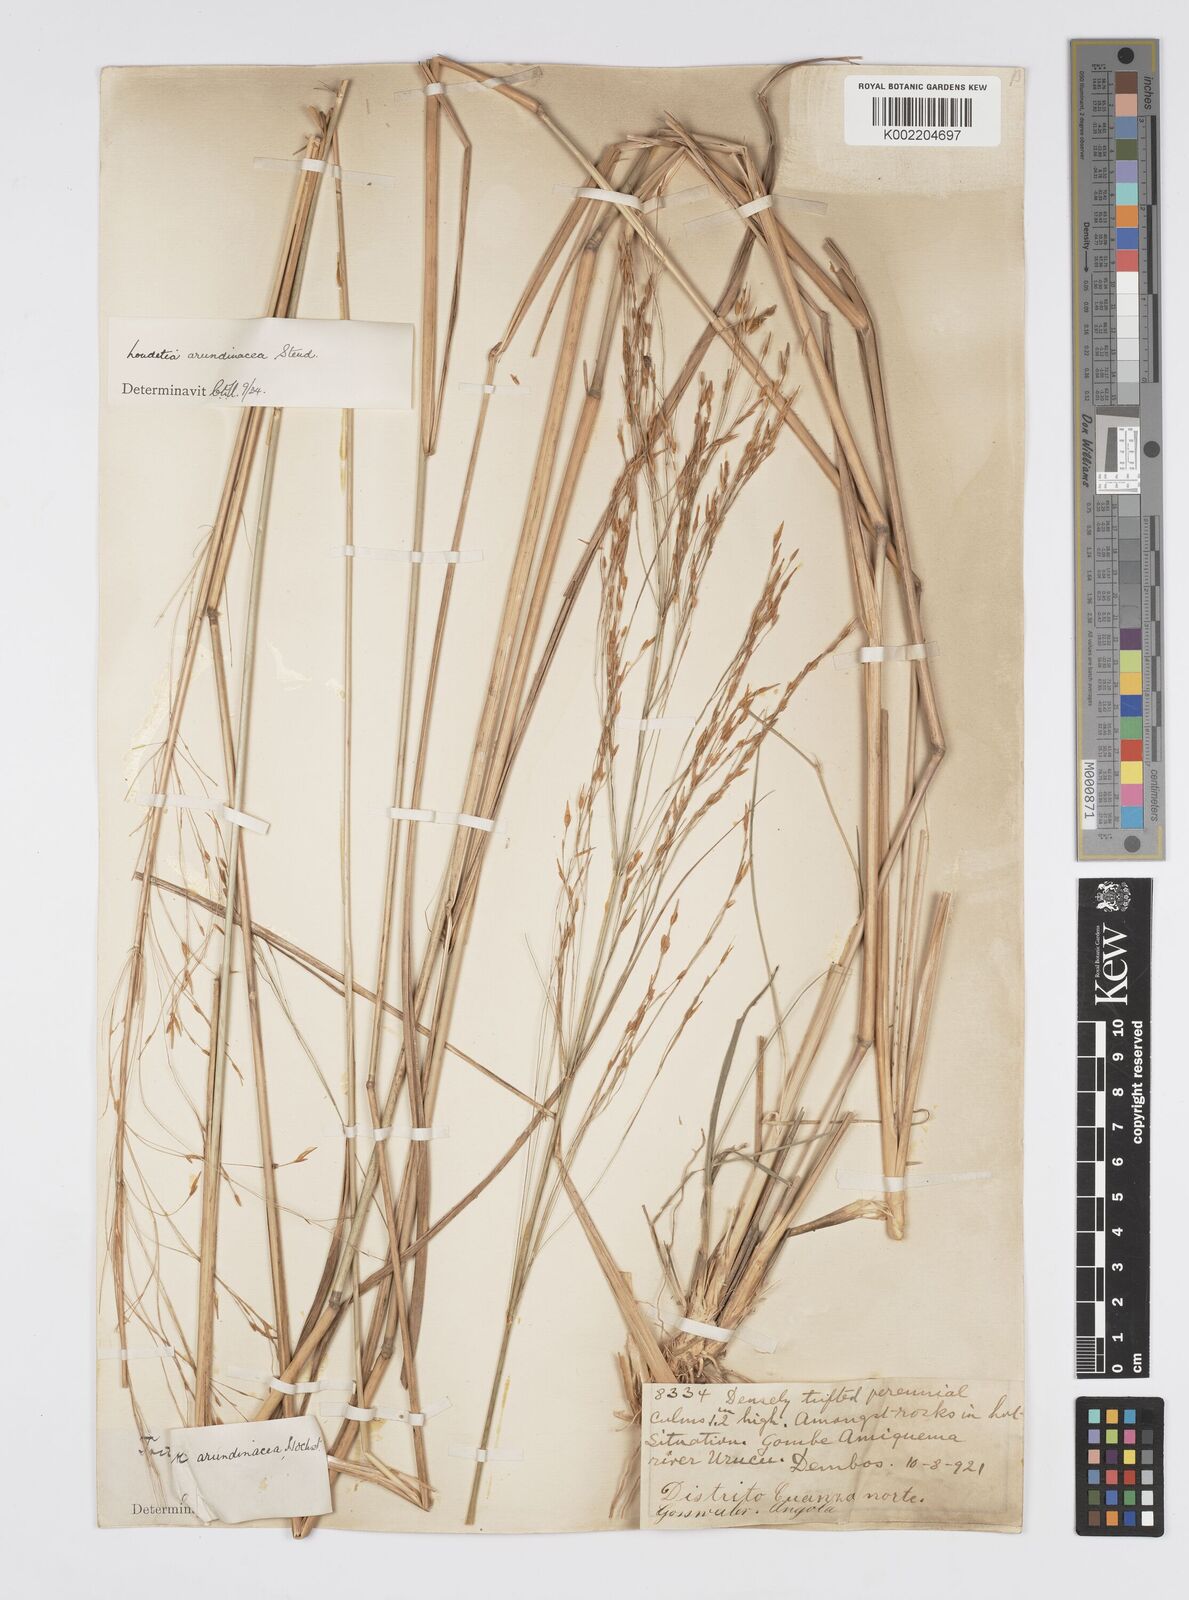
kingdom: Plantae
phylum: Tracheophyta
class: Liliopsida
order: Poales
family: Poaceae
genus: Loudetia
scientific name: Loudetia arundinacea
